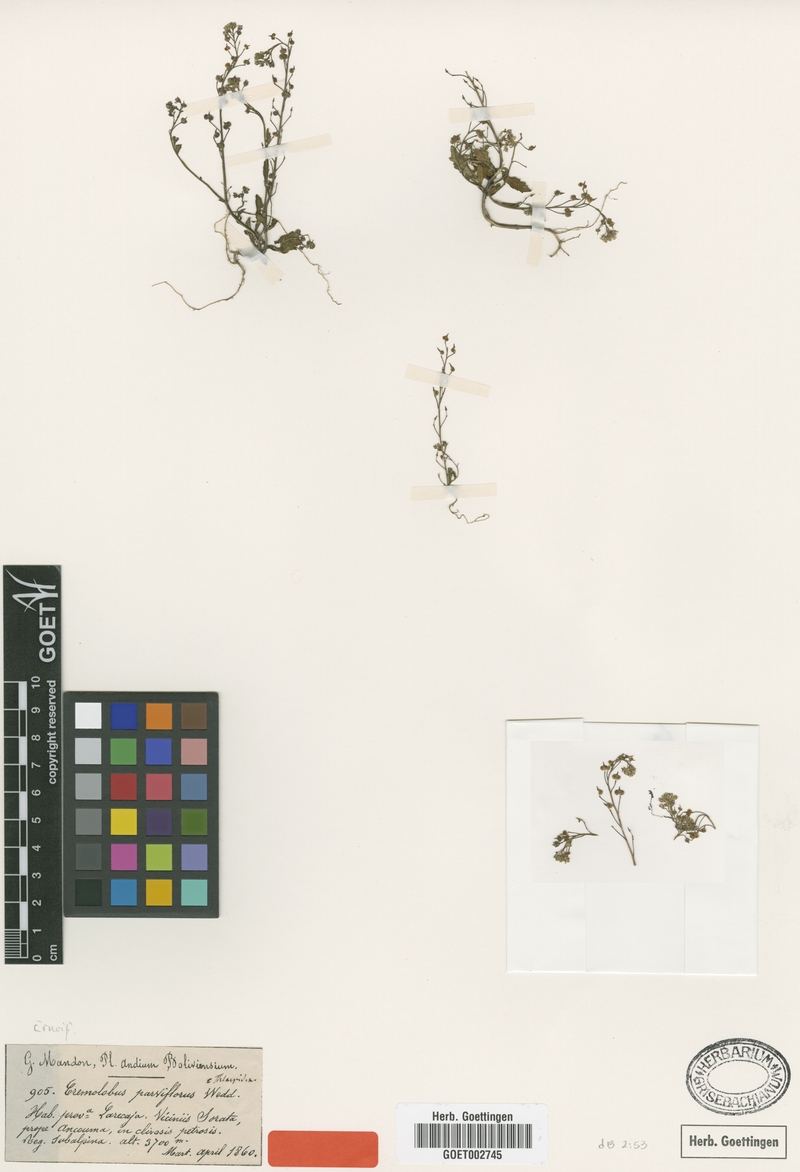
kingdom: Plantae
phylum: Tracheophyta
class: Magnoliopsida
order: Brassicales
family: Brassicaceae
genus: Cremolobus
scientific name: Cremolobus chilensis
